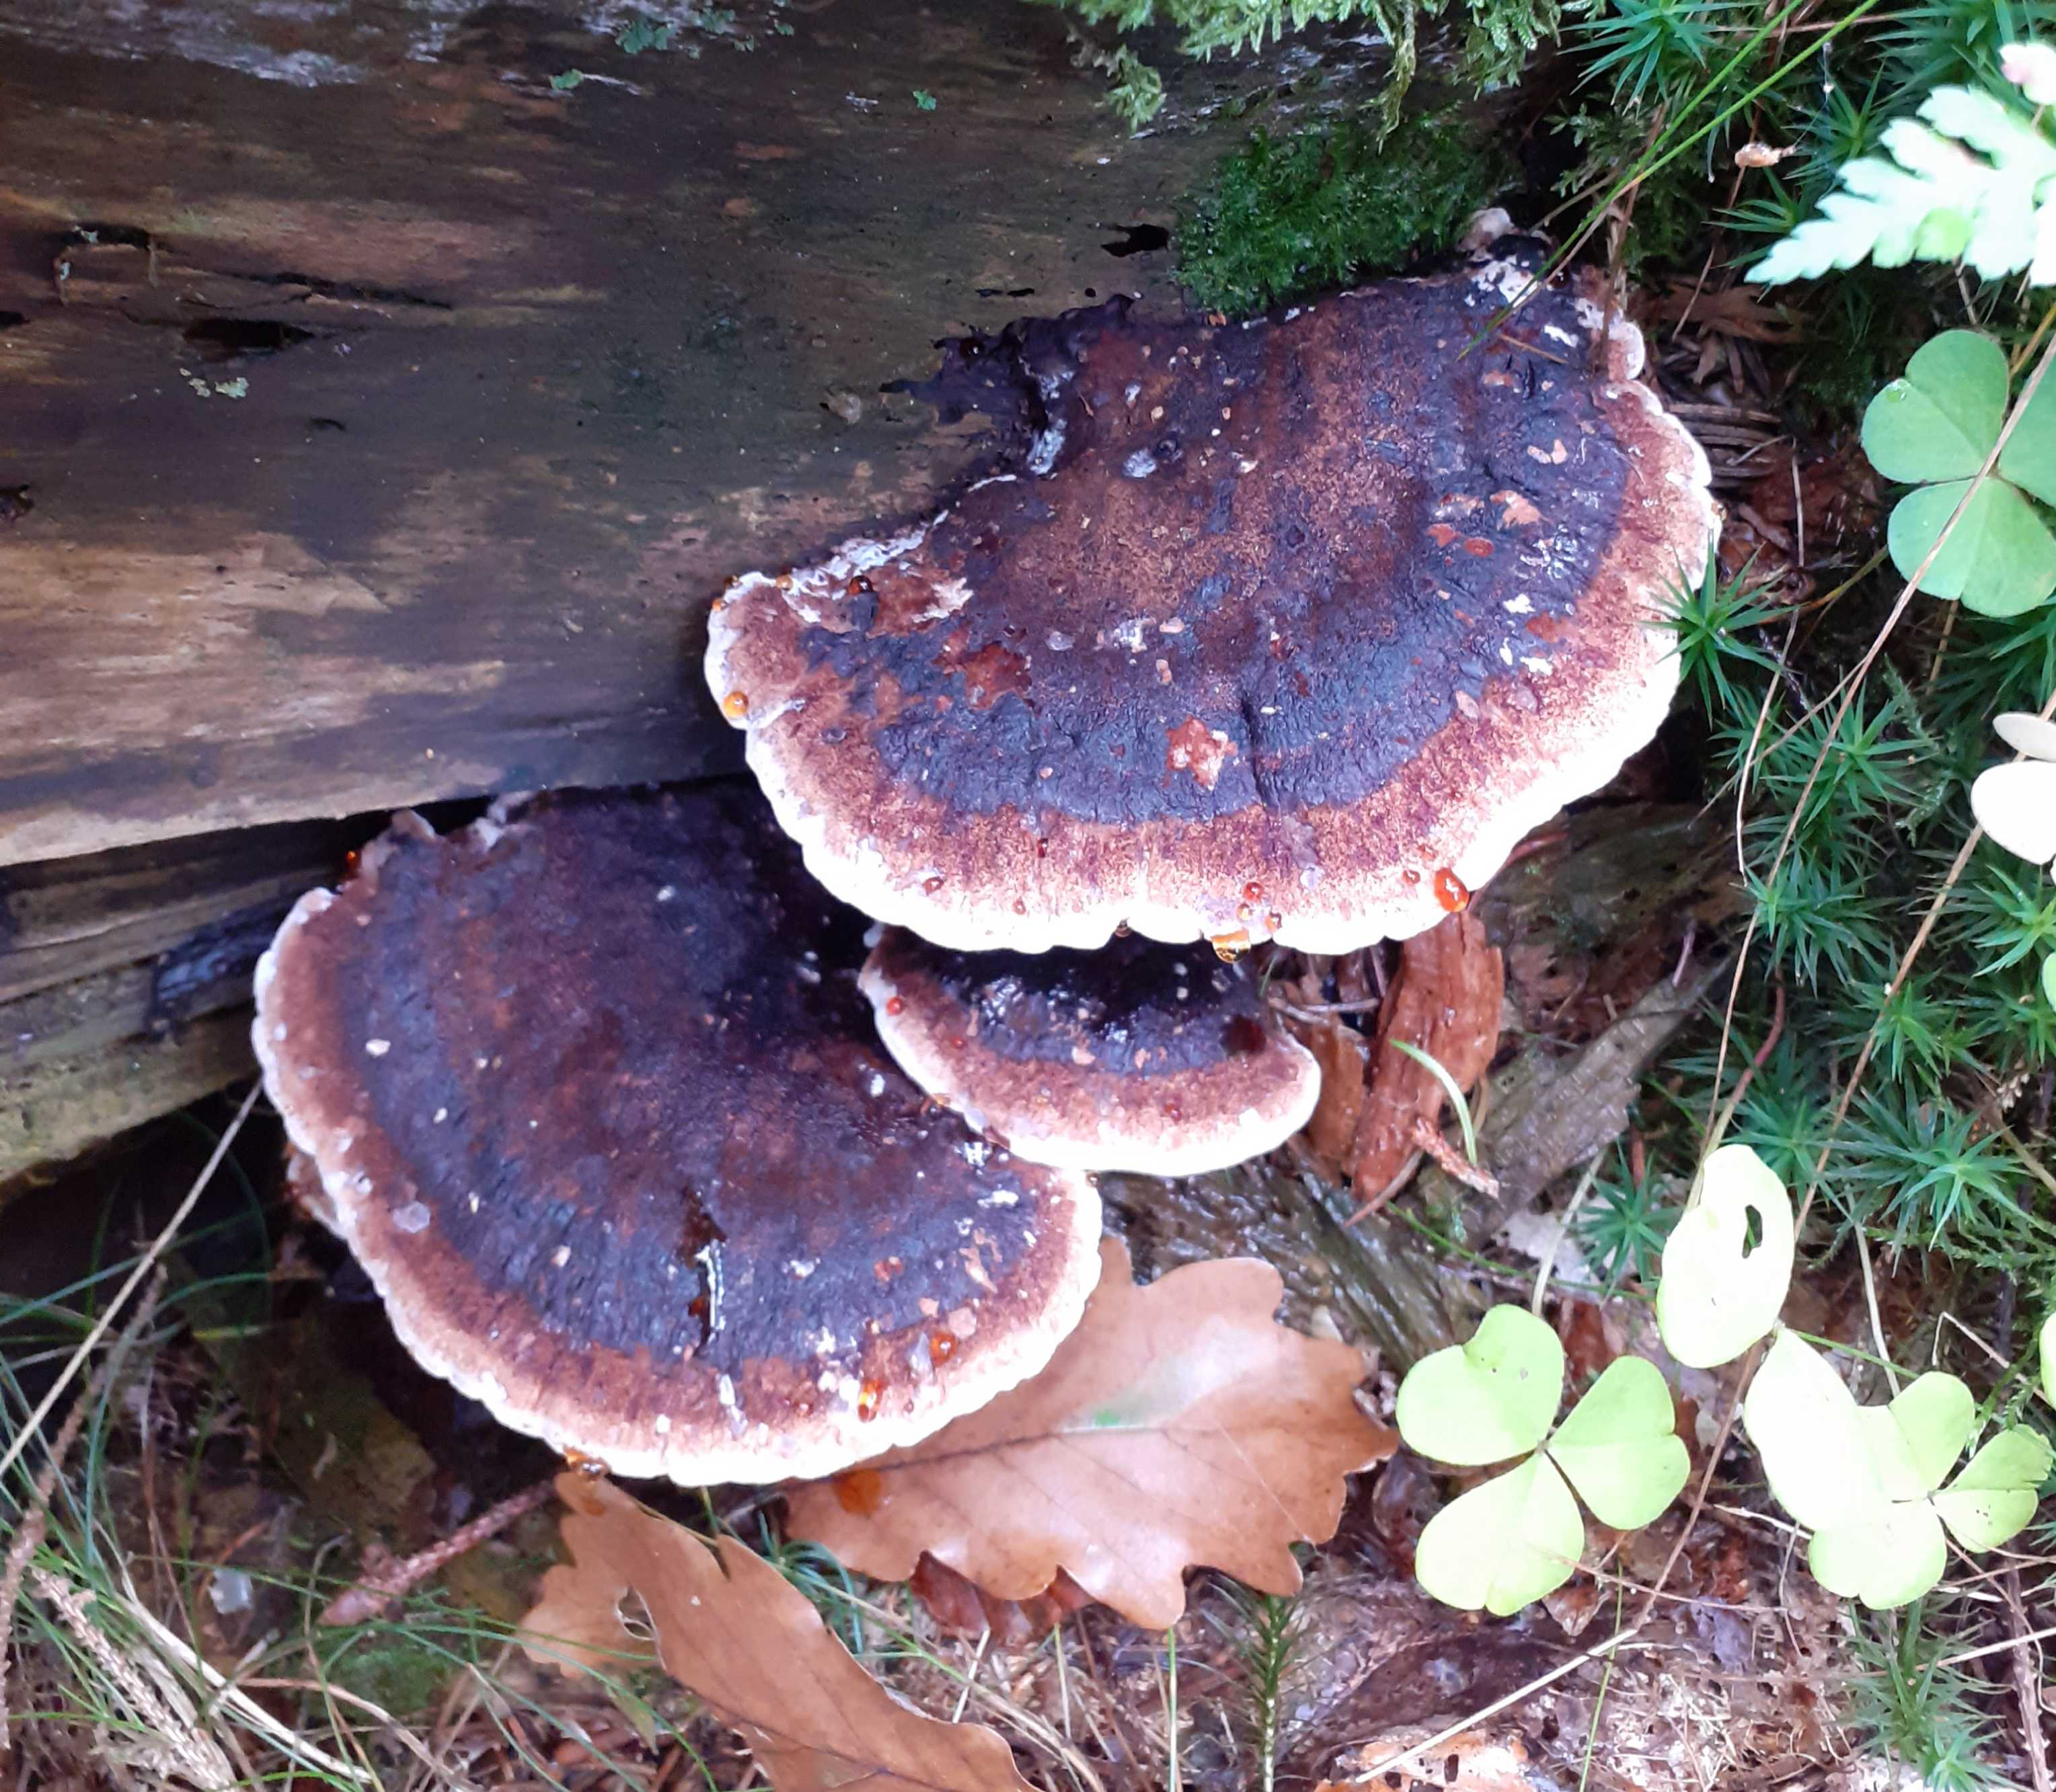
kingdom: Fungi
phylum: Basidiomycota
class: Agaricomycetes
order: Polyporales
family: Ischnodermataceae
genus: Ischnoderma
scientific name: Ischnoderma benzoinum
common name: gran-tjæreporesvamp
